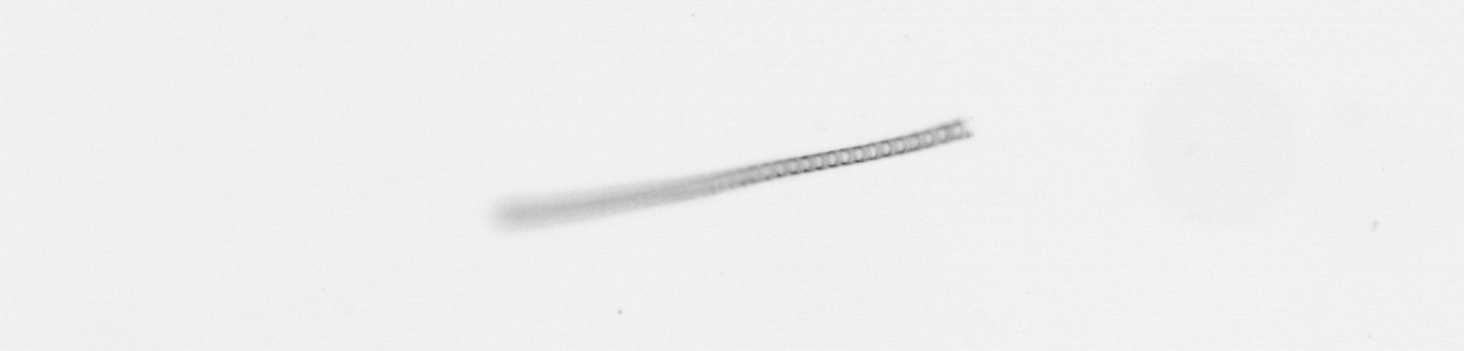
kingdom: Chromista
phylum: Ochrophyta
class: Bacillariophyceae
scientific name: Bacillariophyceae
